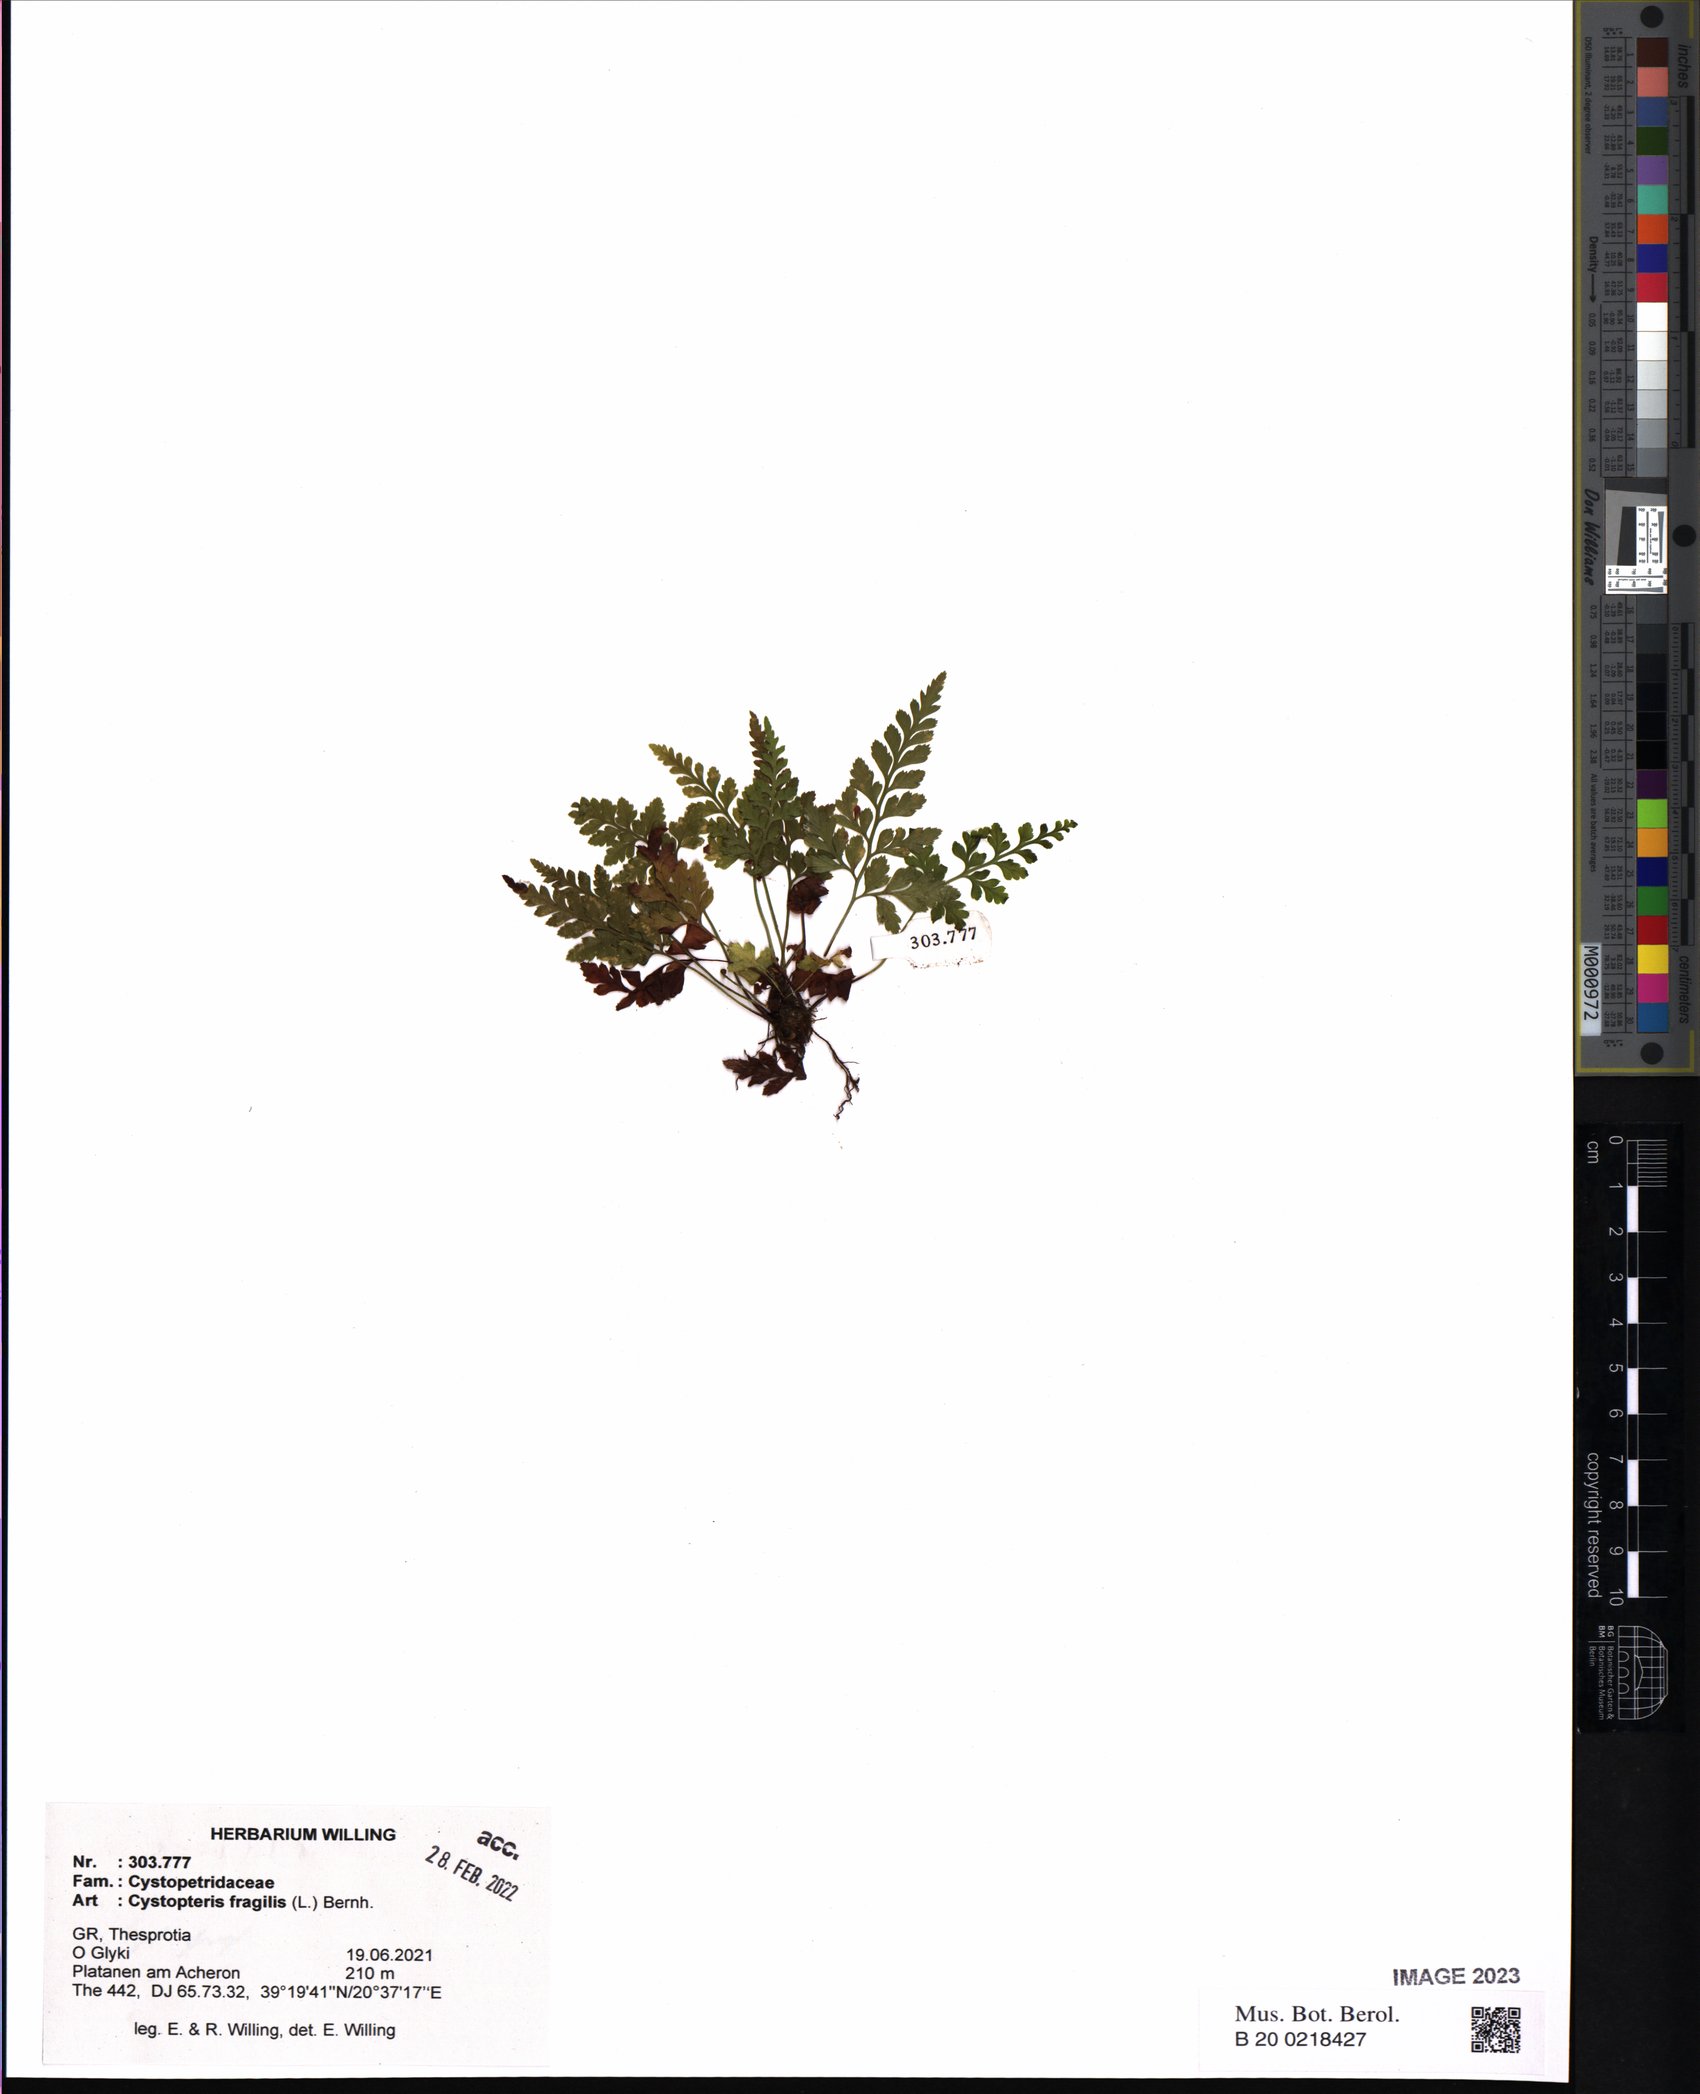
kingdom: Plantae
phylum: Tracheophyta
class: Polypodiopsida
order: Polypodiales
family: Cystopteridaceae
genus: Cystopteris
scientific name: Cystopteris fragilis
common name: Brittle bladder fern
